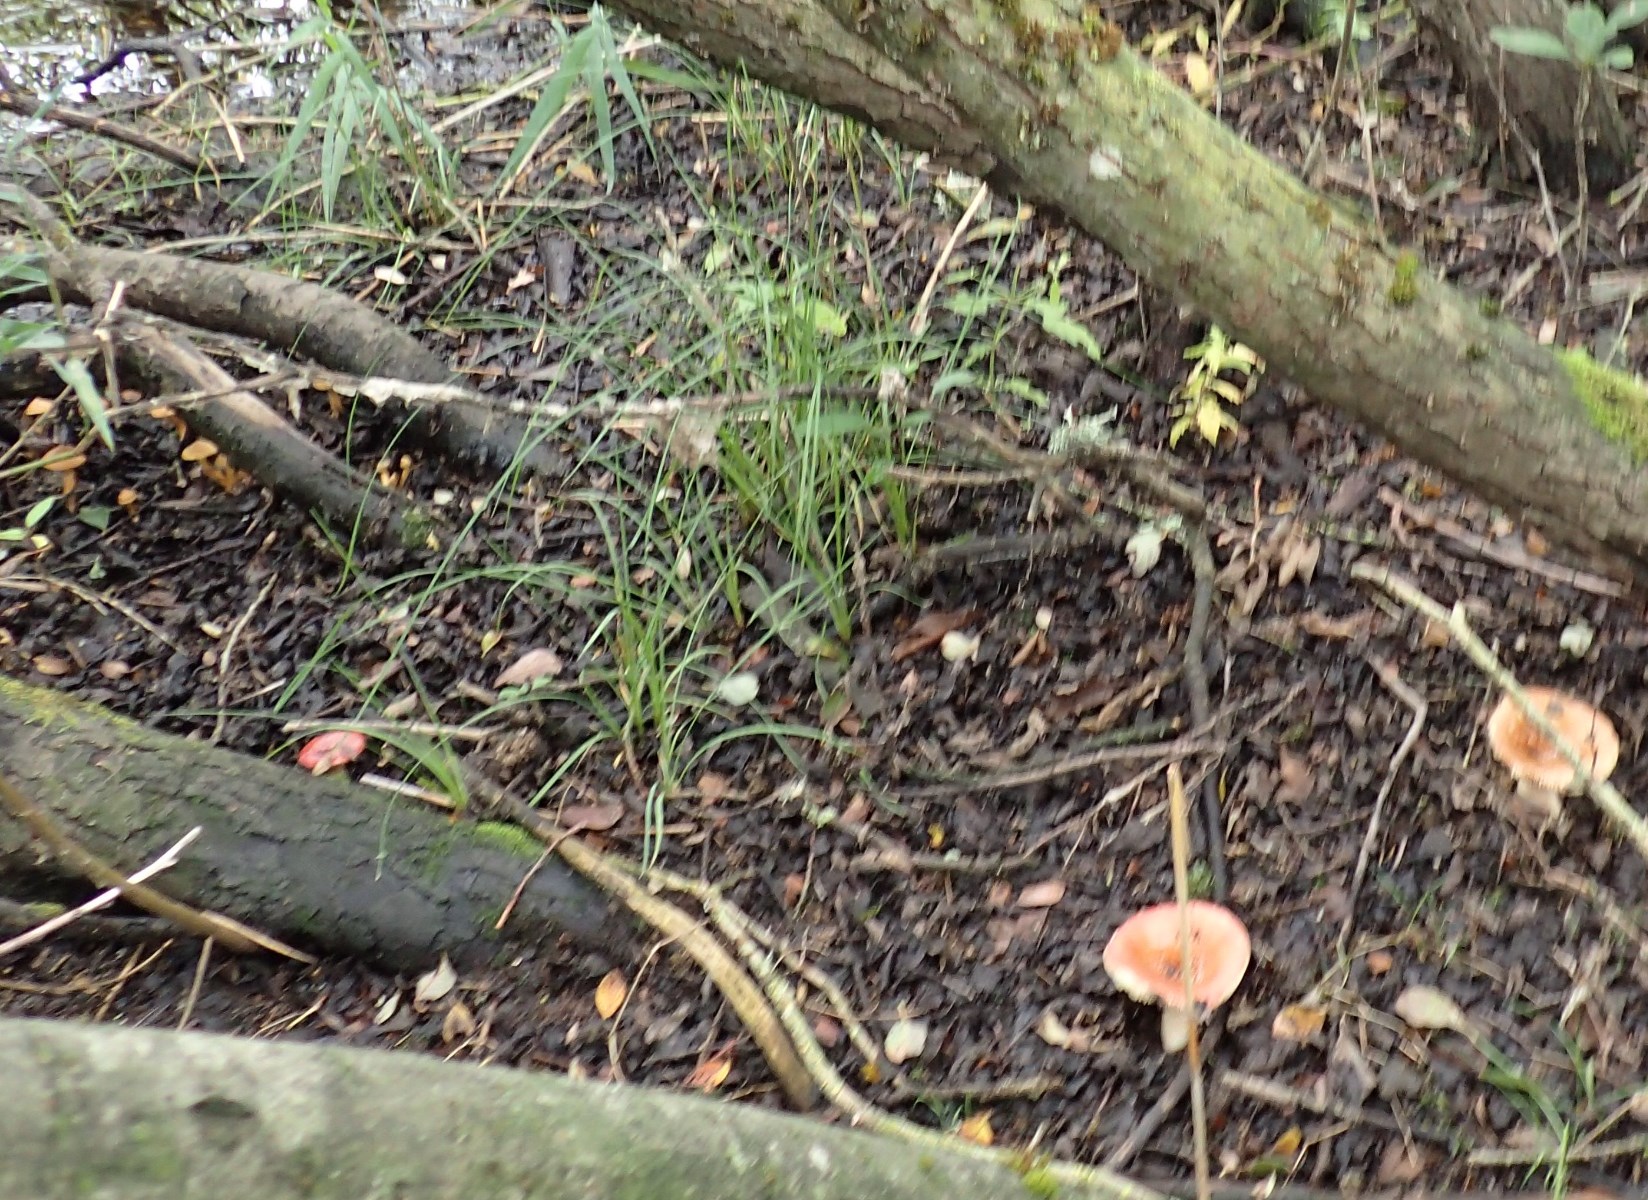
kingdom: Fungi
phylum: Basidiomycota
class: Agaricomycetes
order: Russulales
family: Russulaceae
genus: Russula
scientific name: Russula subrubens
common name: pile-skørhat
